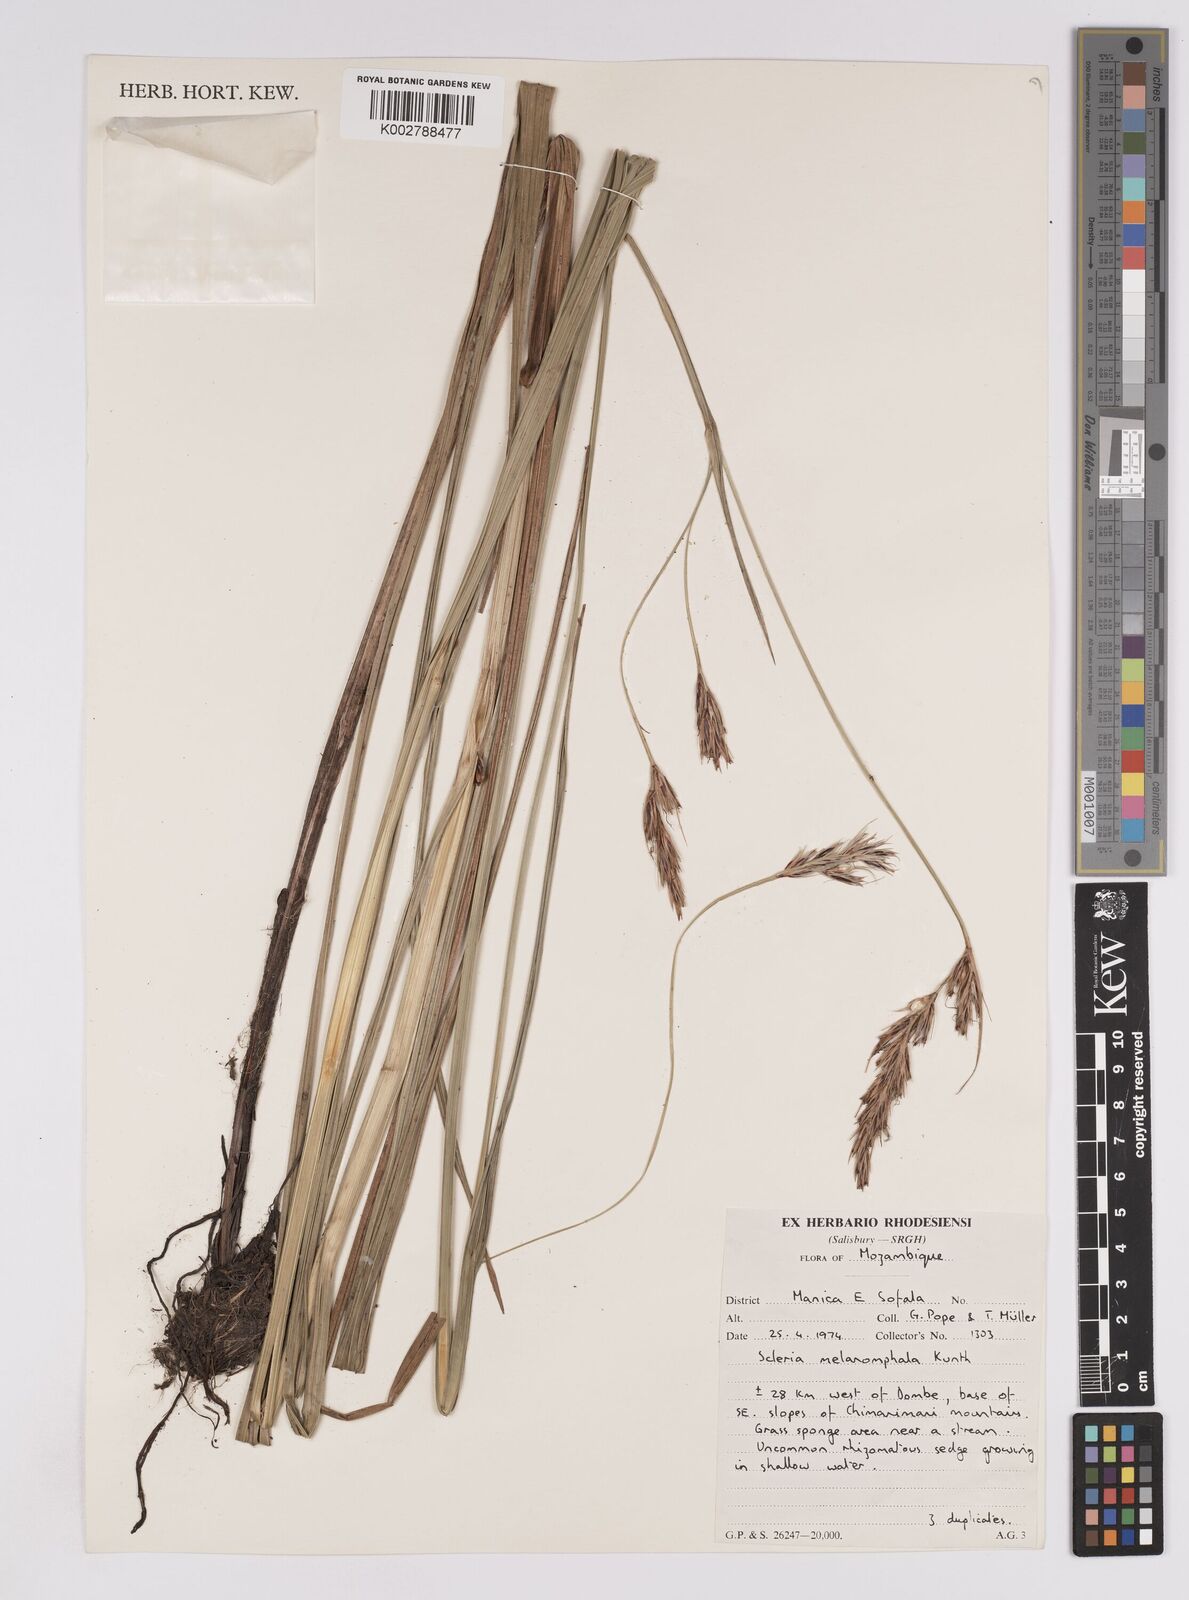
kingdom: Plantae
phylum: Tracheophyta
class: Liliopsida
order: Poales
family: Cyperaceae
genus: Scleria
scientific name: Scleria melanomphala
